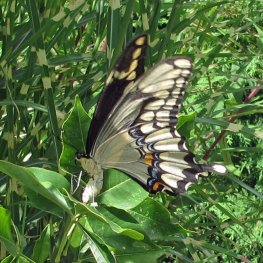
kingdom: Animalia
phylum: Arthropoda
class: Insecta
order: Lepidoptera
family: Papilionidae
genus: Papilio
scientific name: Papilio cresphontes
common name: Eastern Giant Swallowtail
